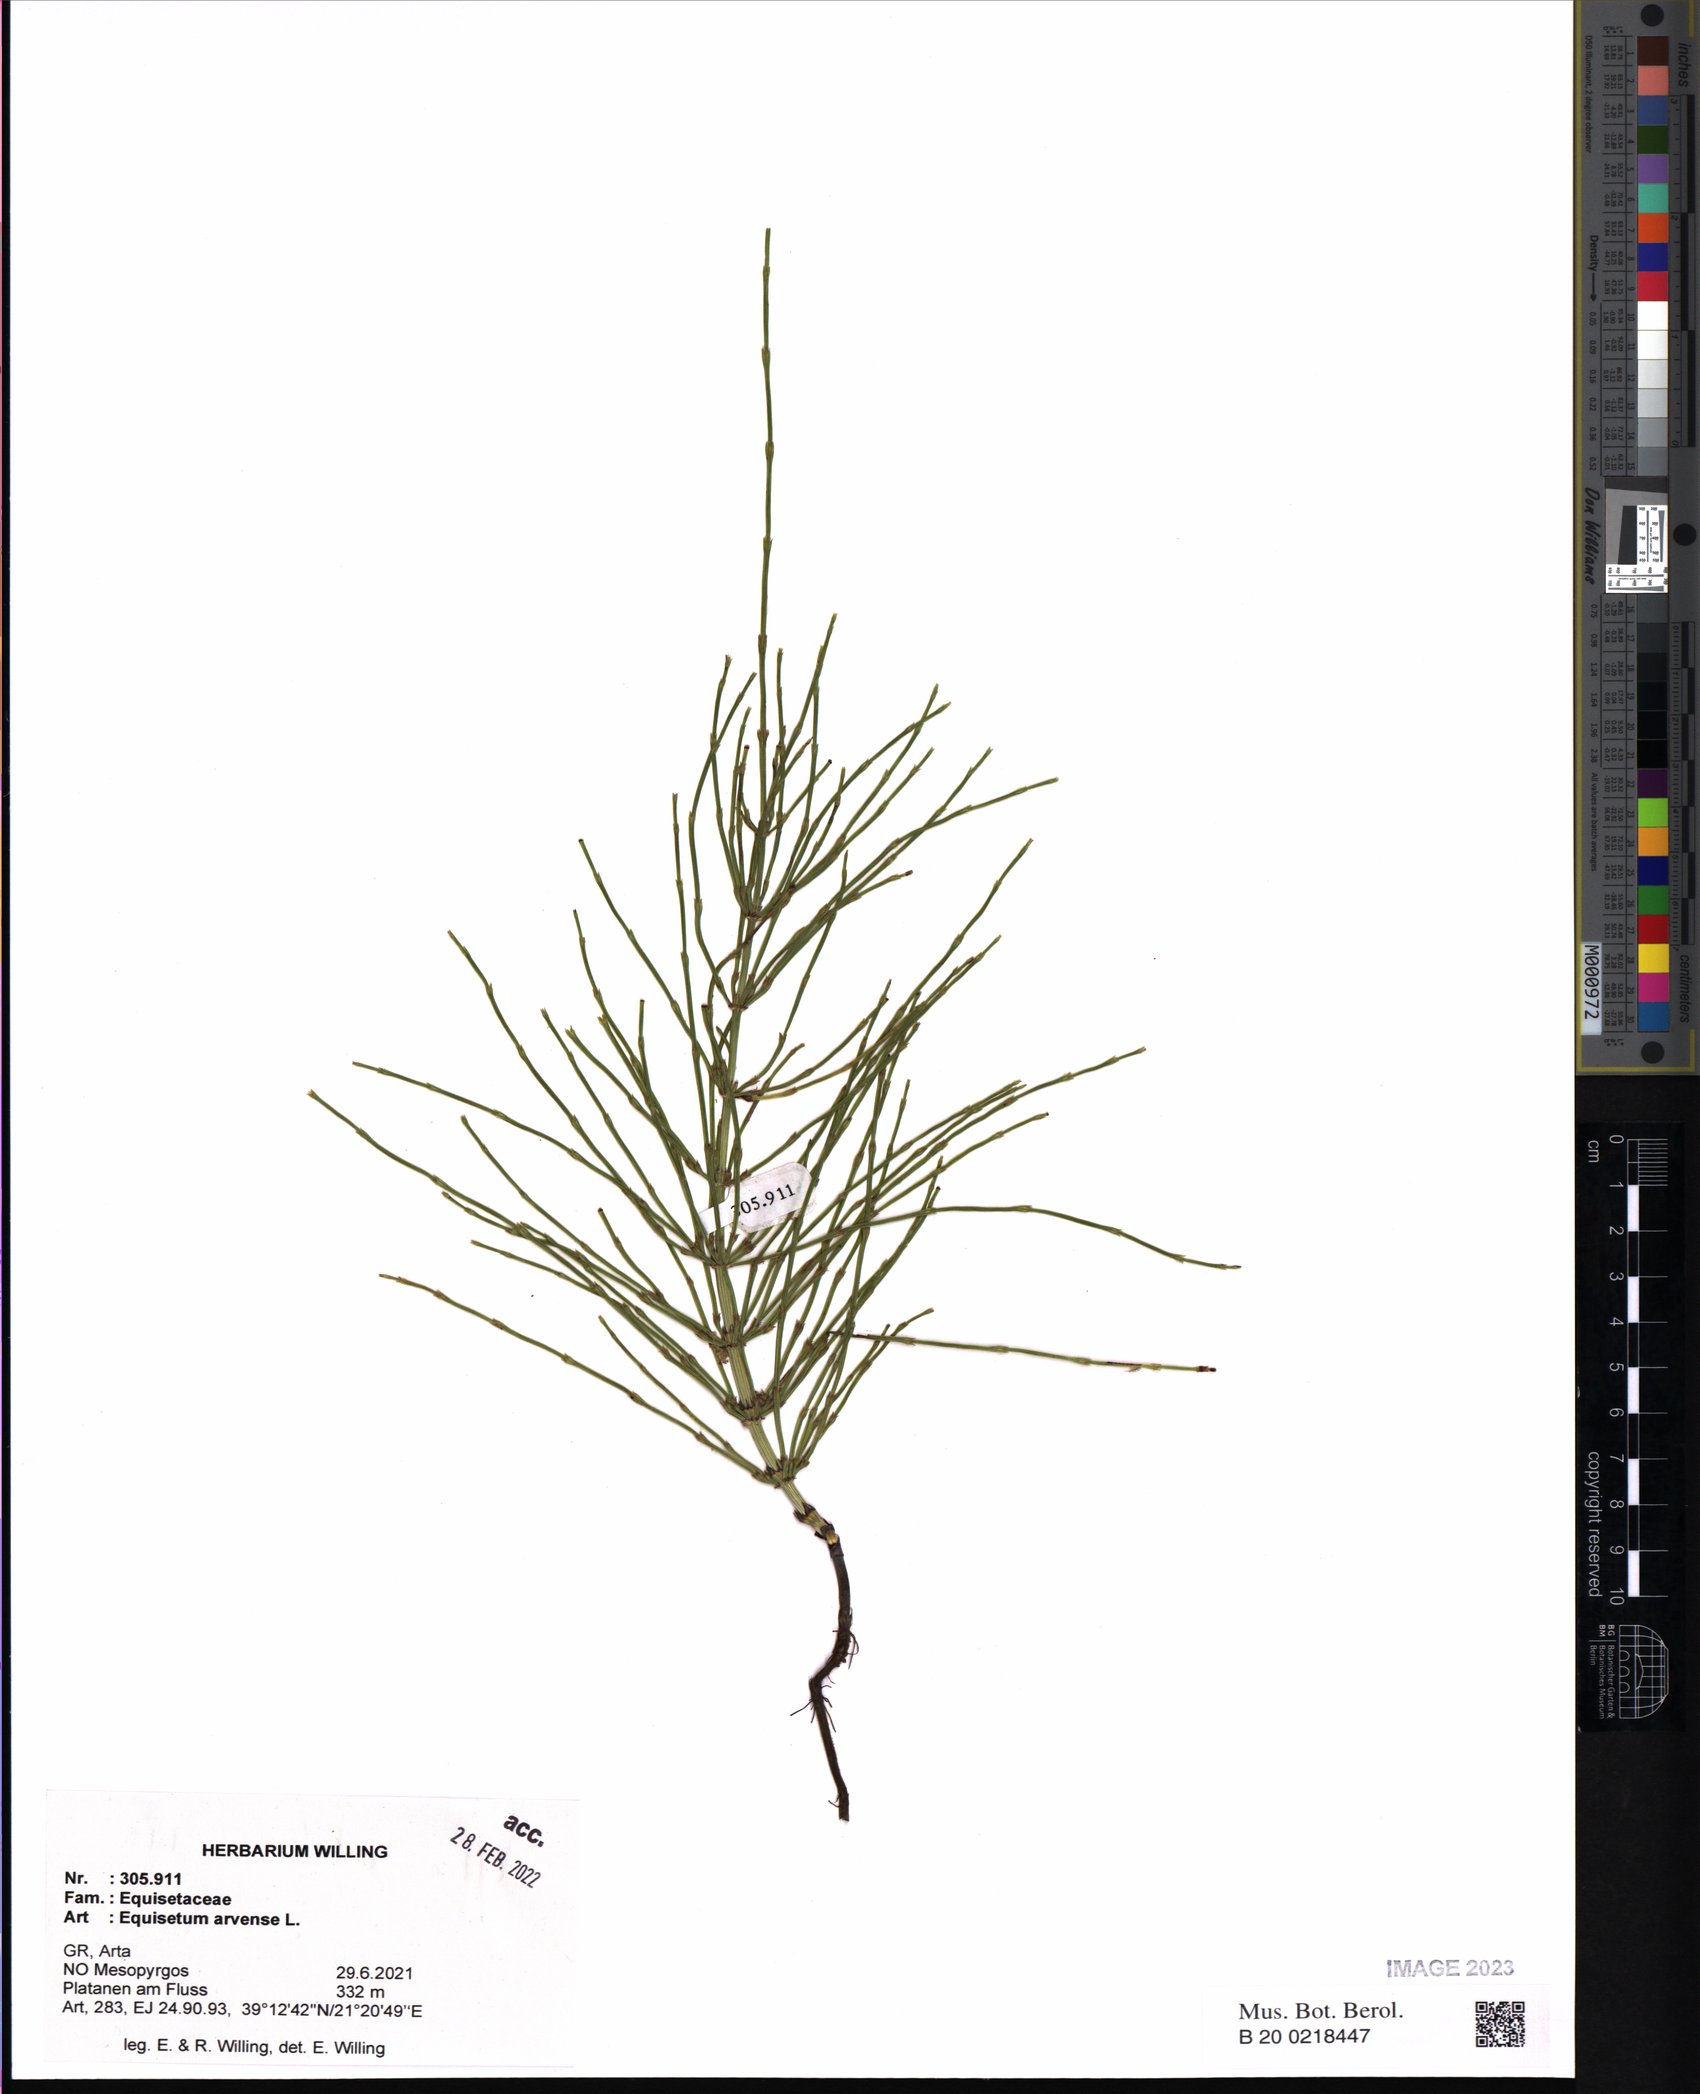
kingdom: Plantae
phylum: Tracheophyta
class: Polypodiopsida
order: Equisetales
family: Equisetaceae
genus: Equisetum
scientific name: Equisetum arvense
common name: Field horsetail
